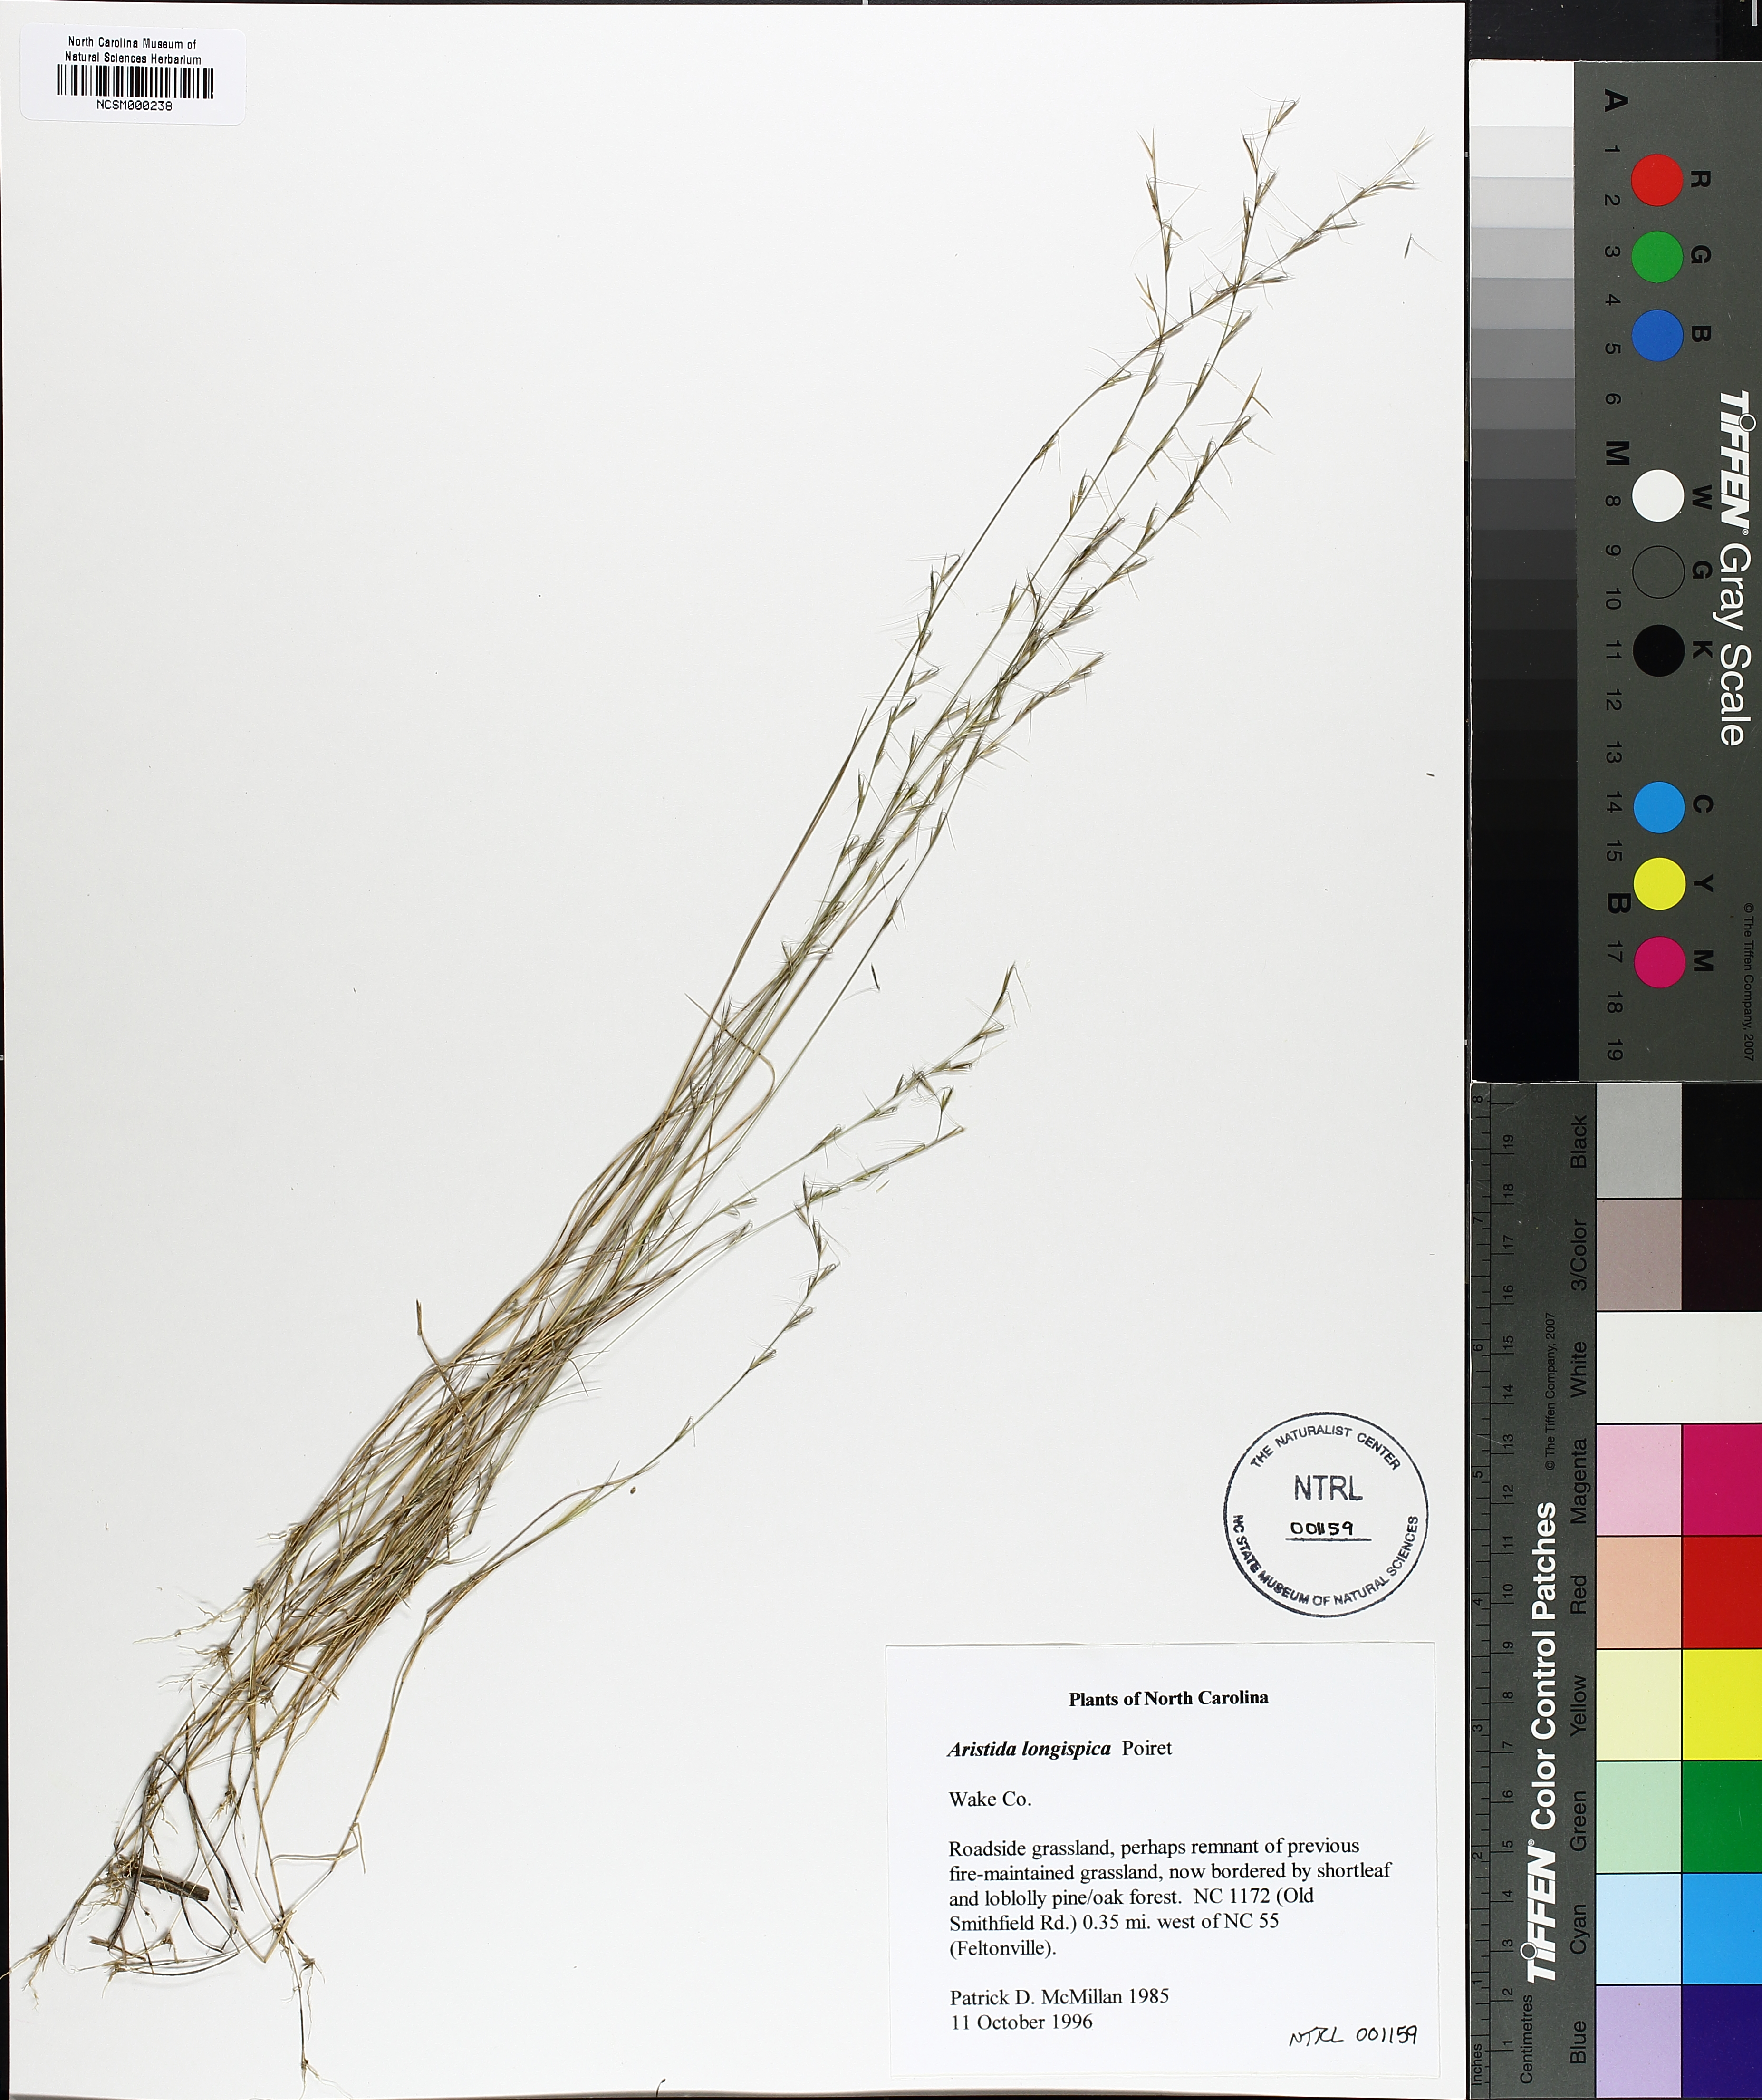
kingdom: Plantae
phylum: Tracheophyta
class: Liliopsida
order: Poales
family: Poaceae
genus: Aristida
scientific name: Aristida longispica
